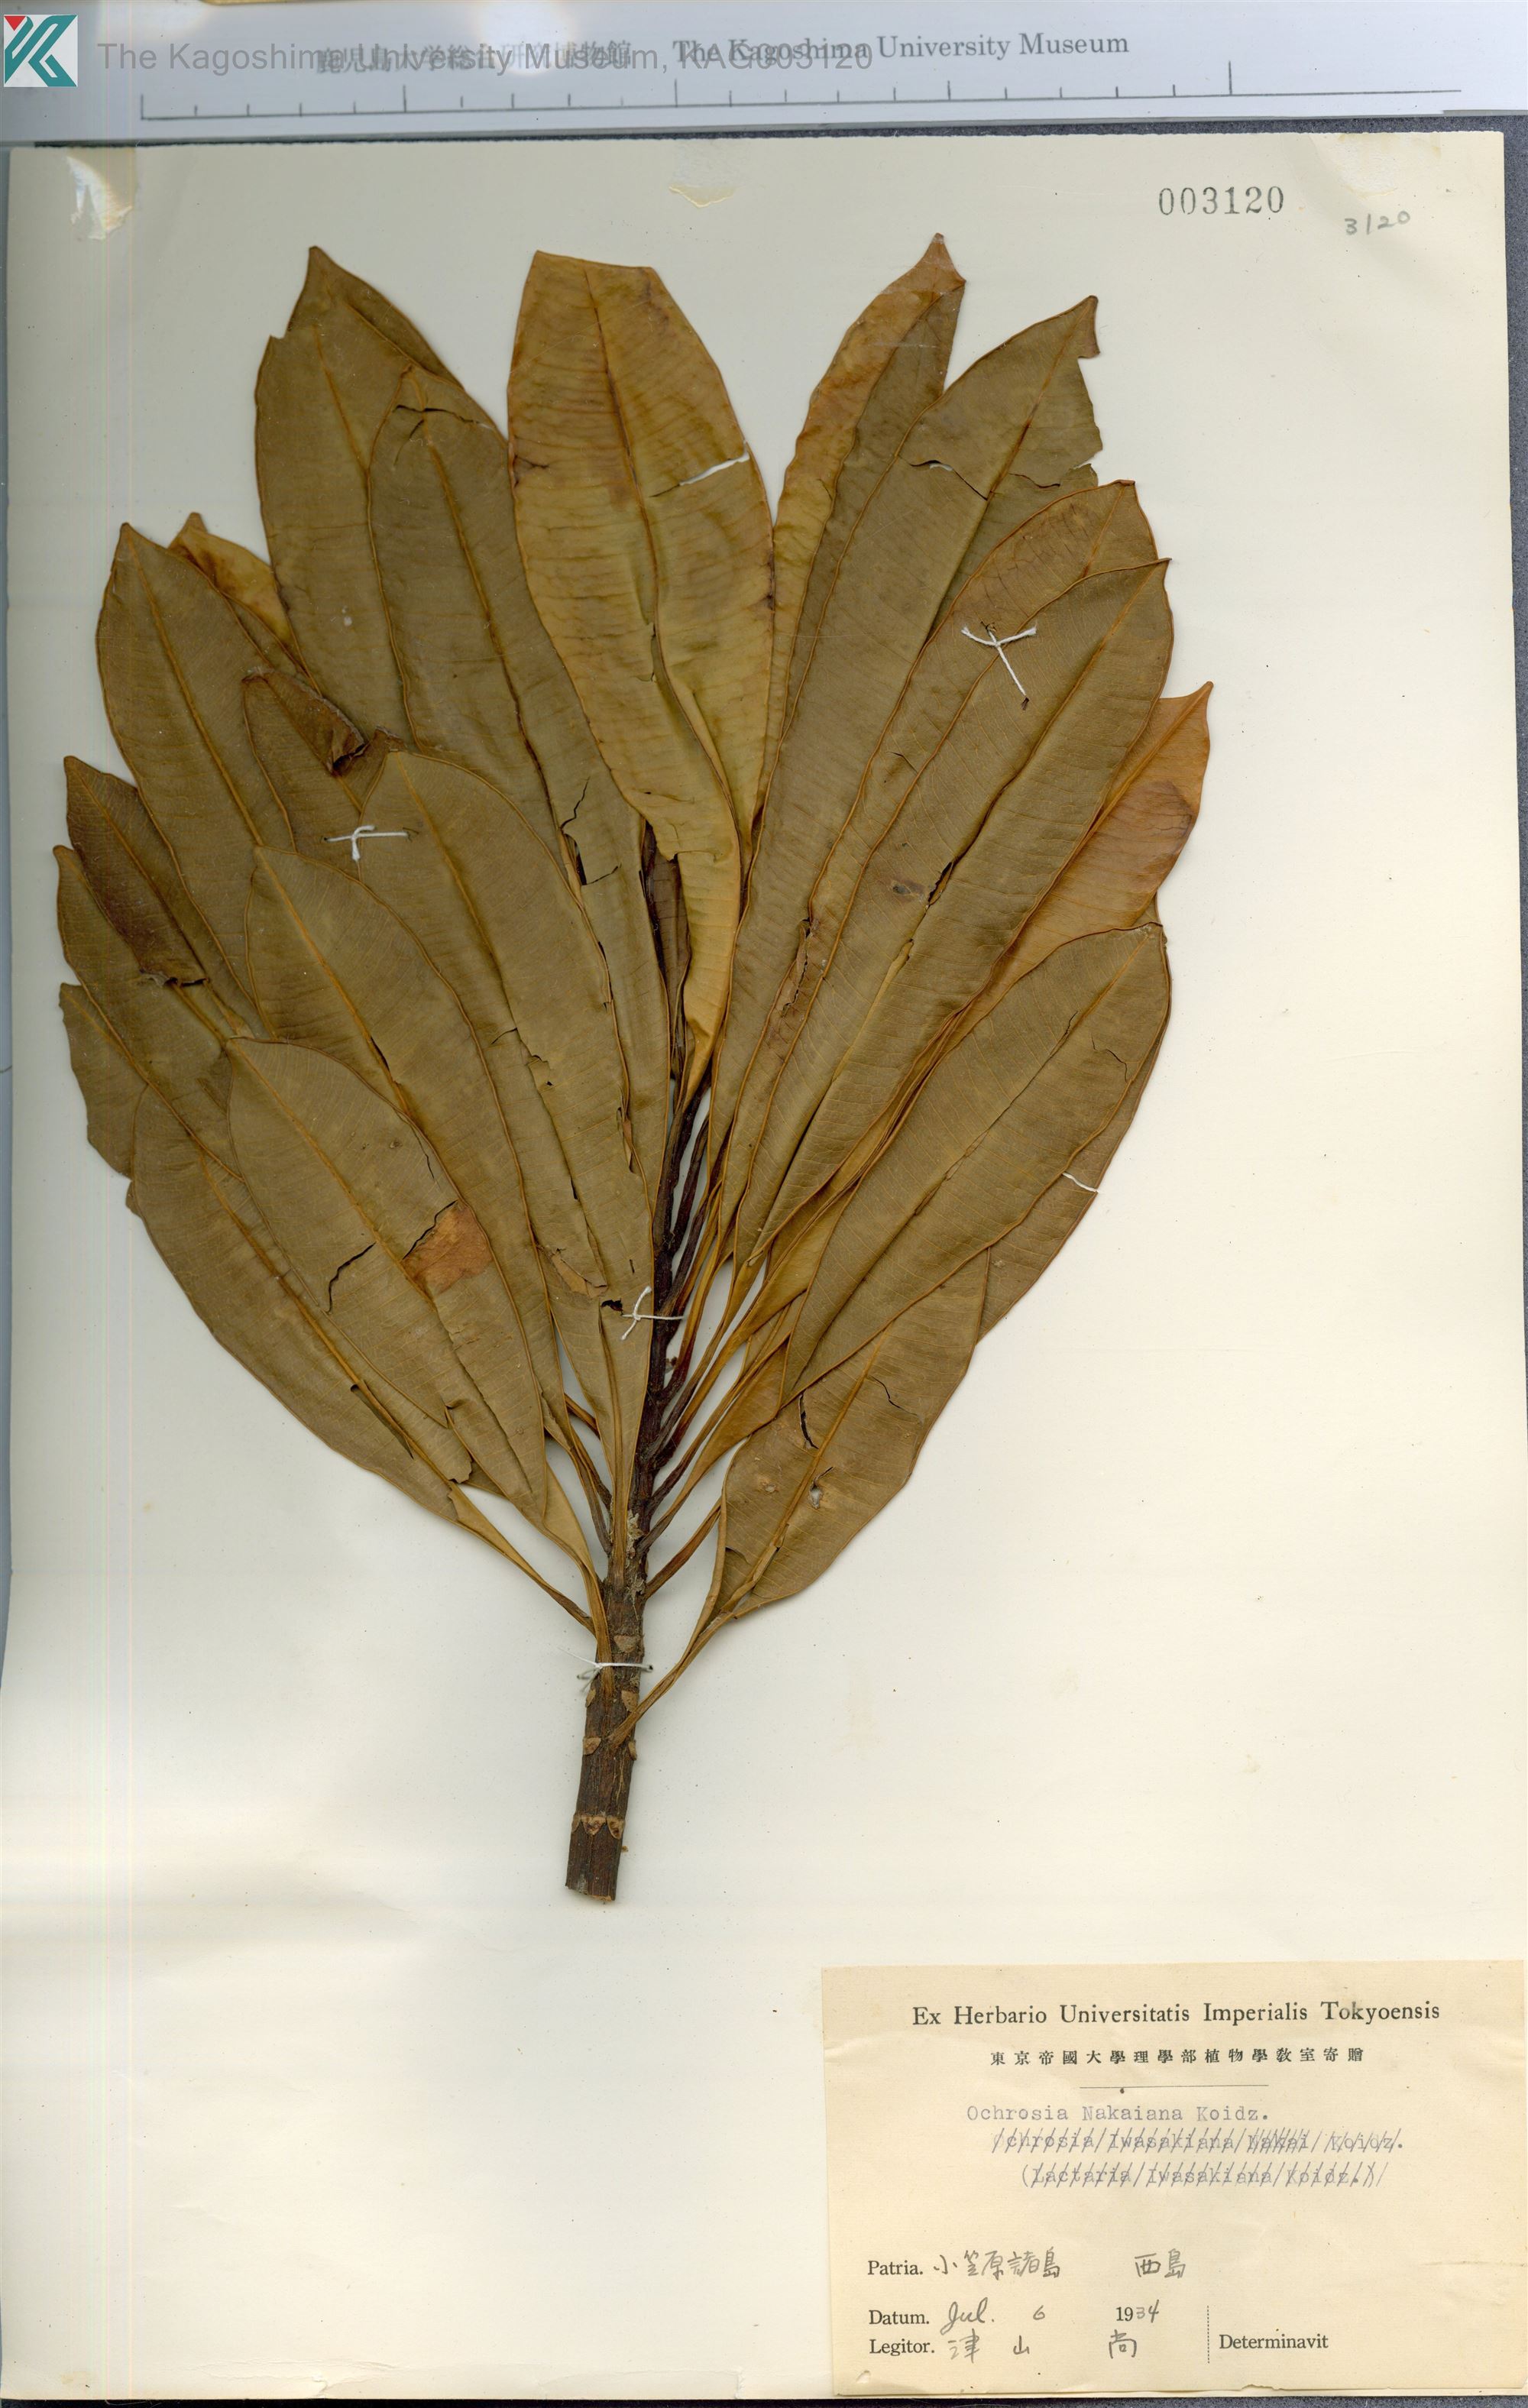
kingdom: Plantae
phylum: Tracheophyta
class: Magnoliopsida
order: Gentianales
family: Apocynaceae
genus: Ochrosia
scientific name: Ochrosia nakaiana
